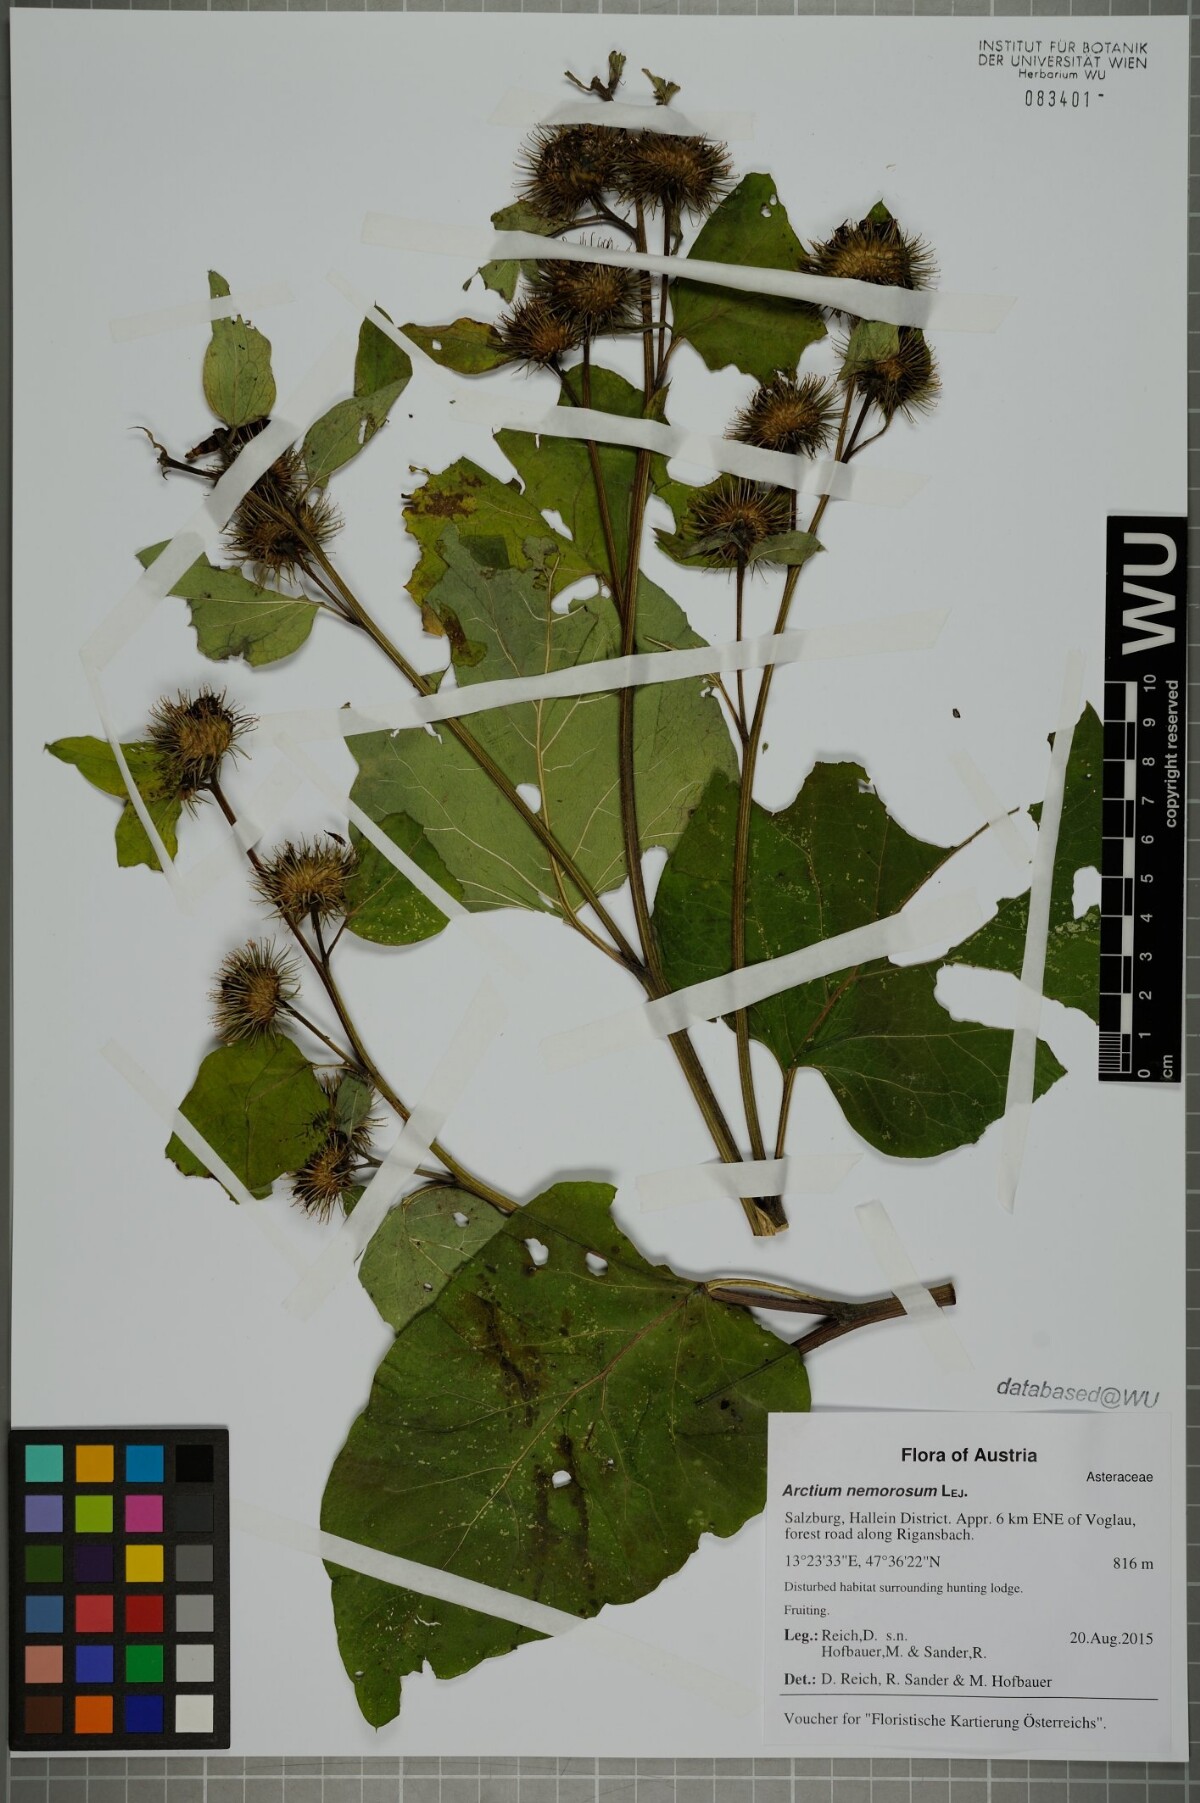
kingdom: Plantae
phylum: Tracheophyta
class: Magnoliopsida
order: Asterales
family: Asteraceae
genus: Arctium
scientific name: Arctium nemorosum
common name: Wood burdock
